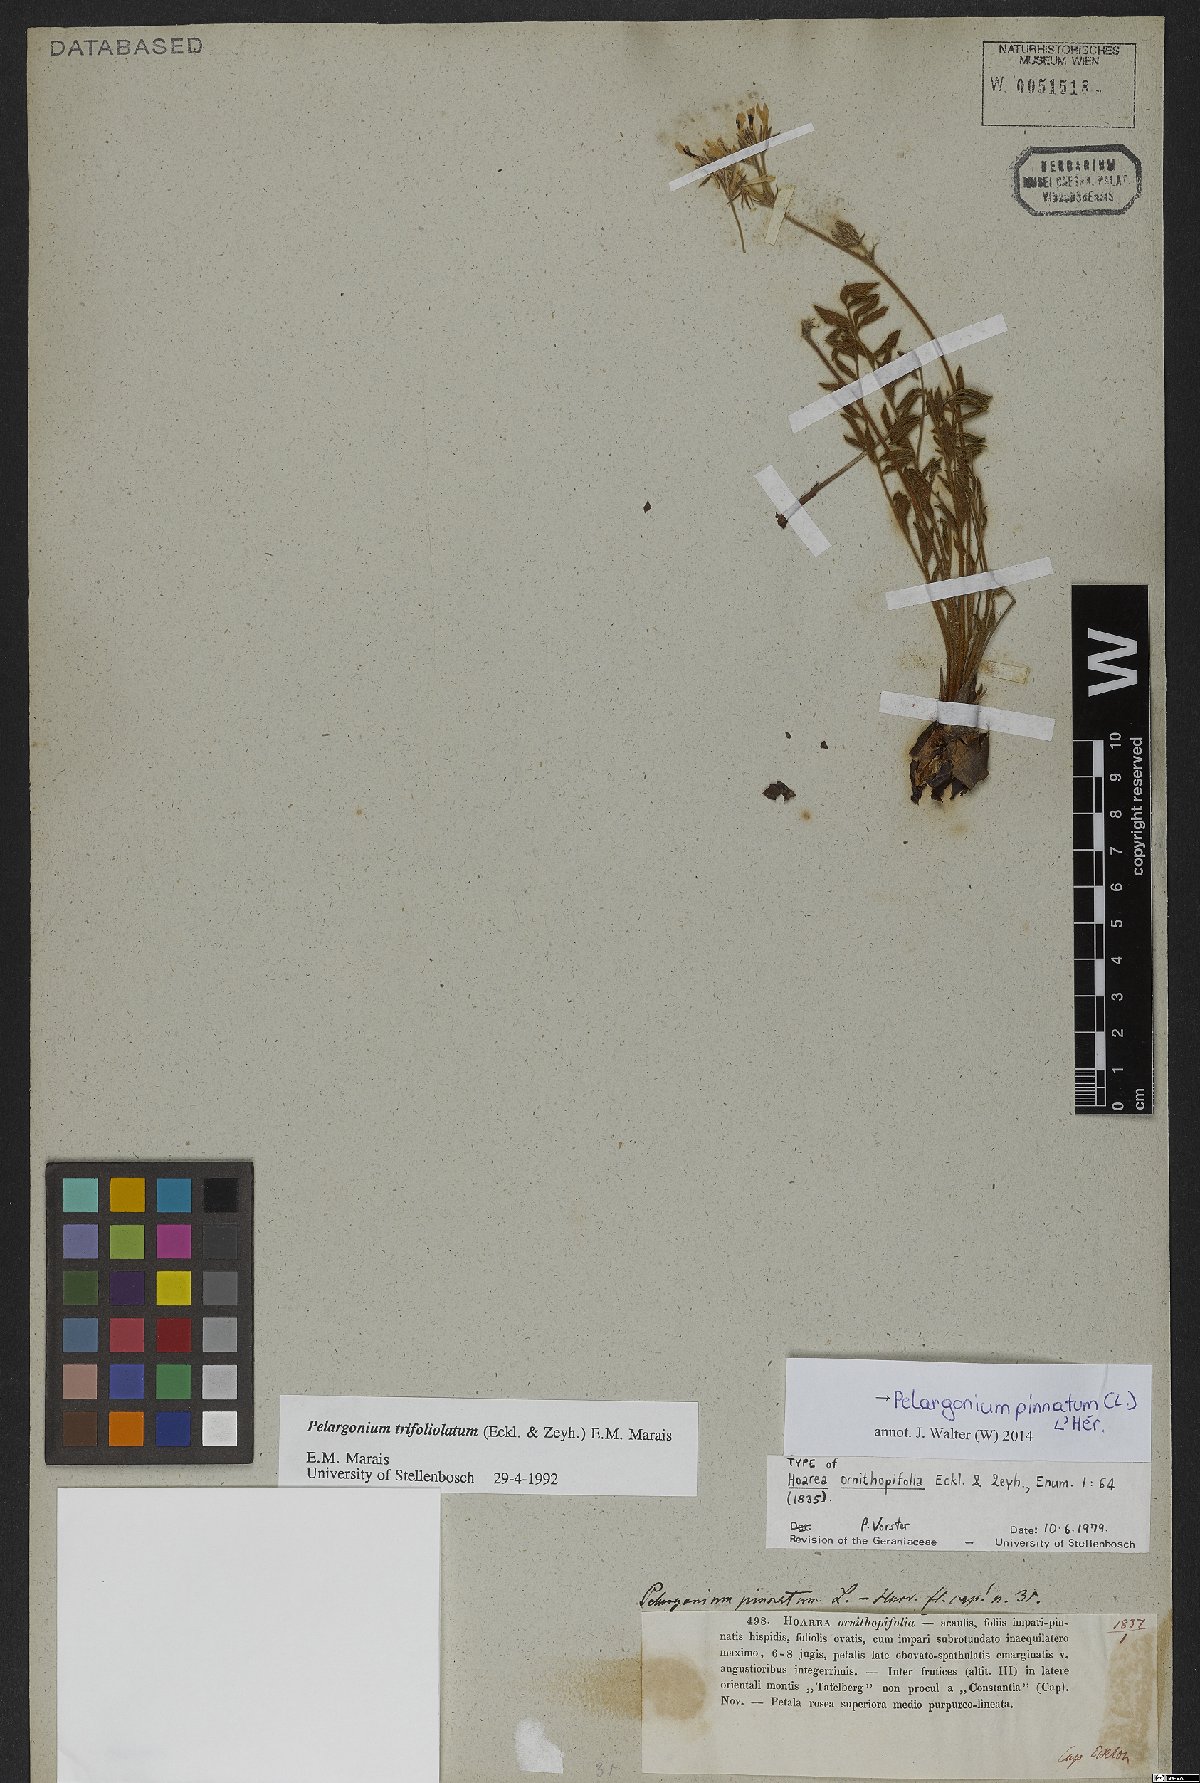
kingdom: Plantae
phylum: Tracheophyta
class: Magnoliopsida
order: Geraniales
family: Geraniaceae
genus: Pelargonium
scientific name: Pelargonium pinnatum
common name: Pinnated pelargonium
